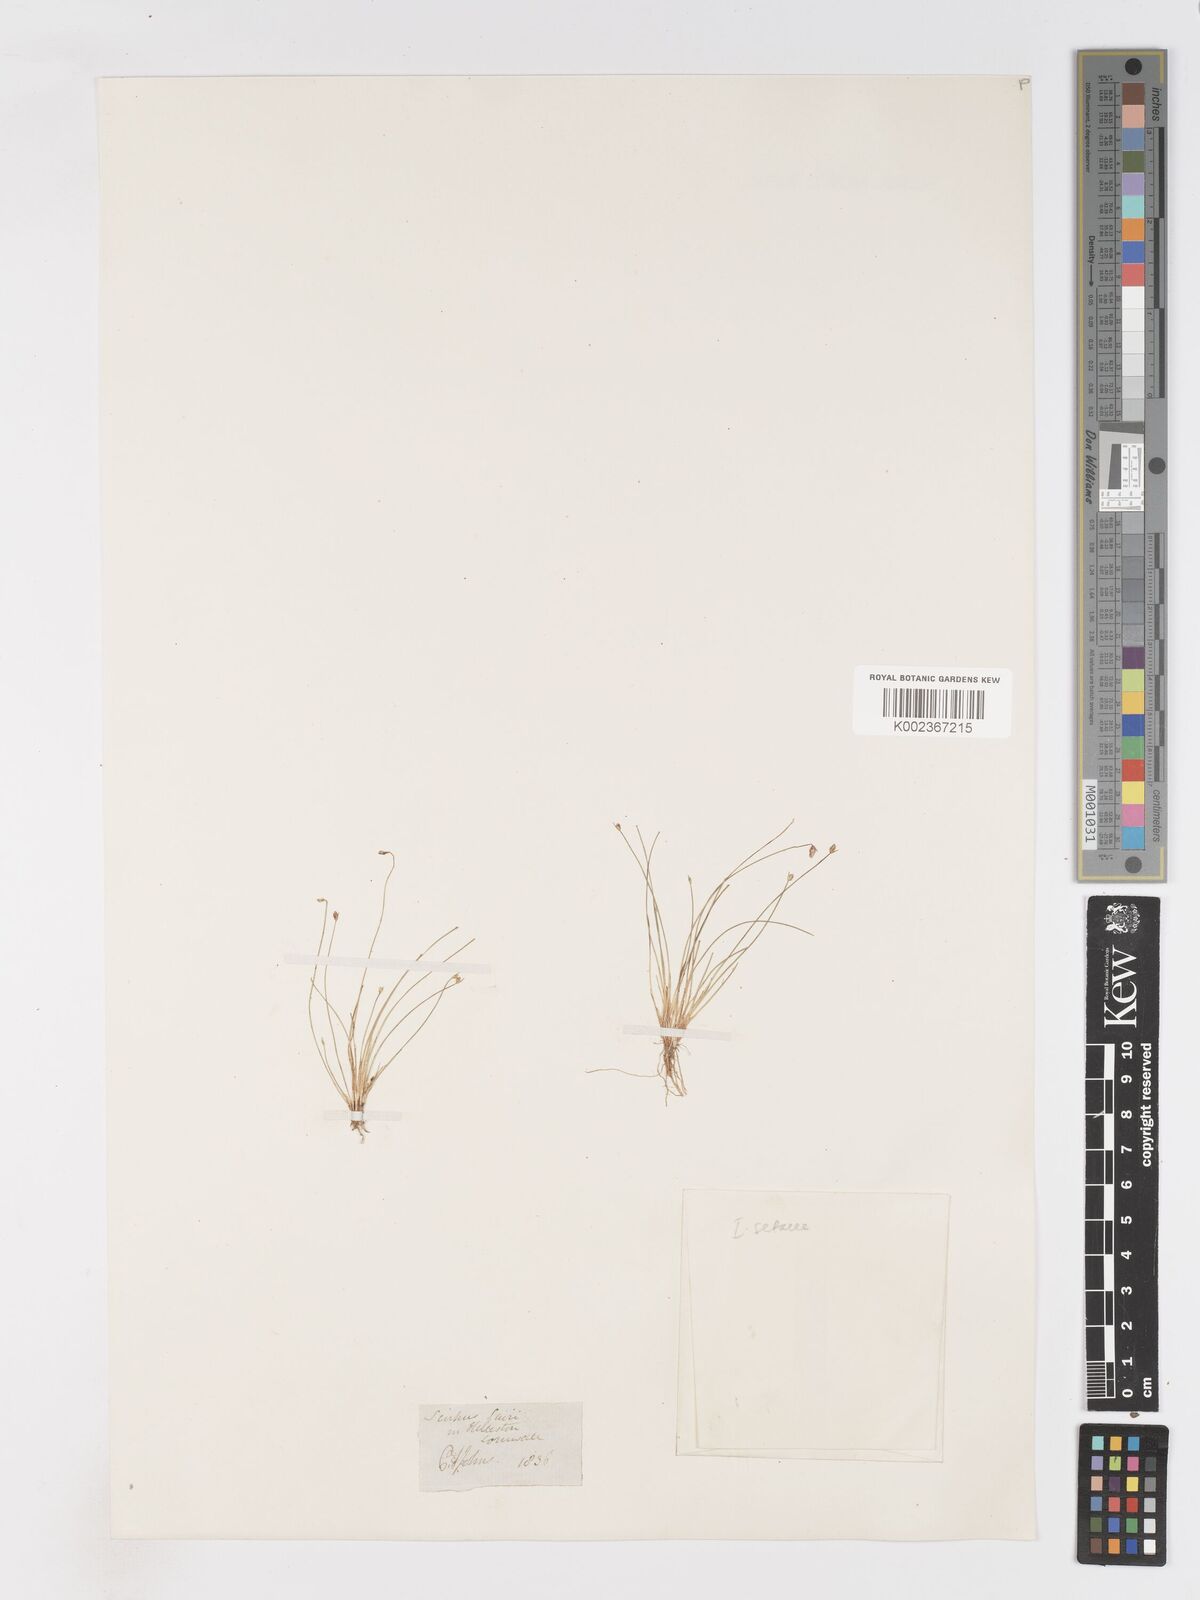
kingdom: Plantae
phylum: Tracheophyta
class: Liliopsida
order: Poales
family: Cyperaceae
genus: Isolepis
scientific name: Isolepis cernua
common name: Slender club-rush
